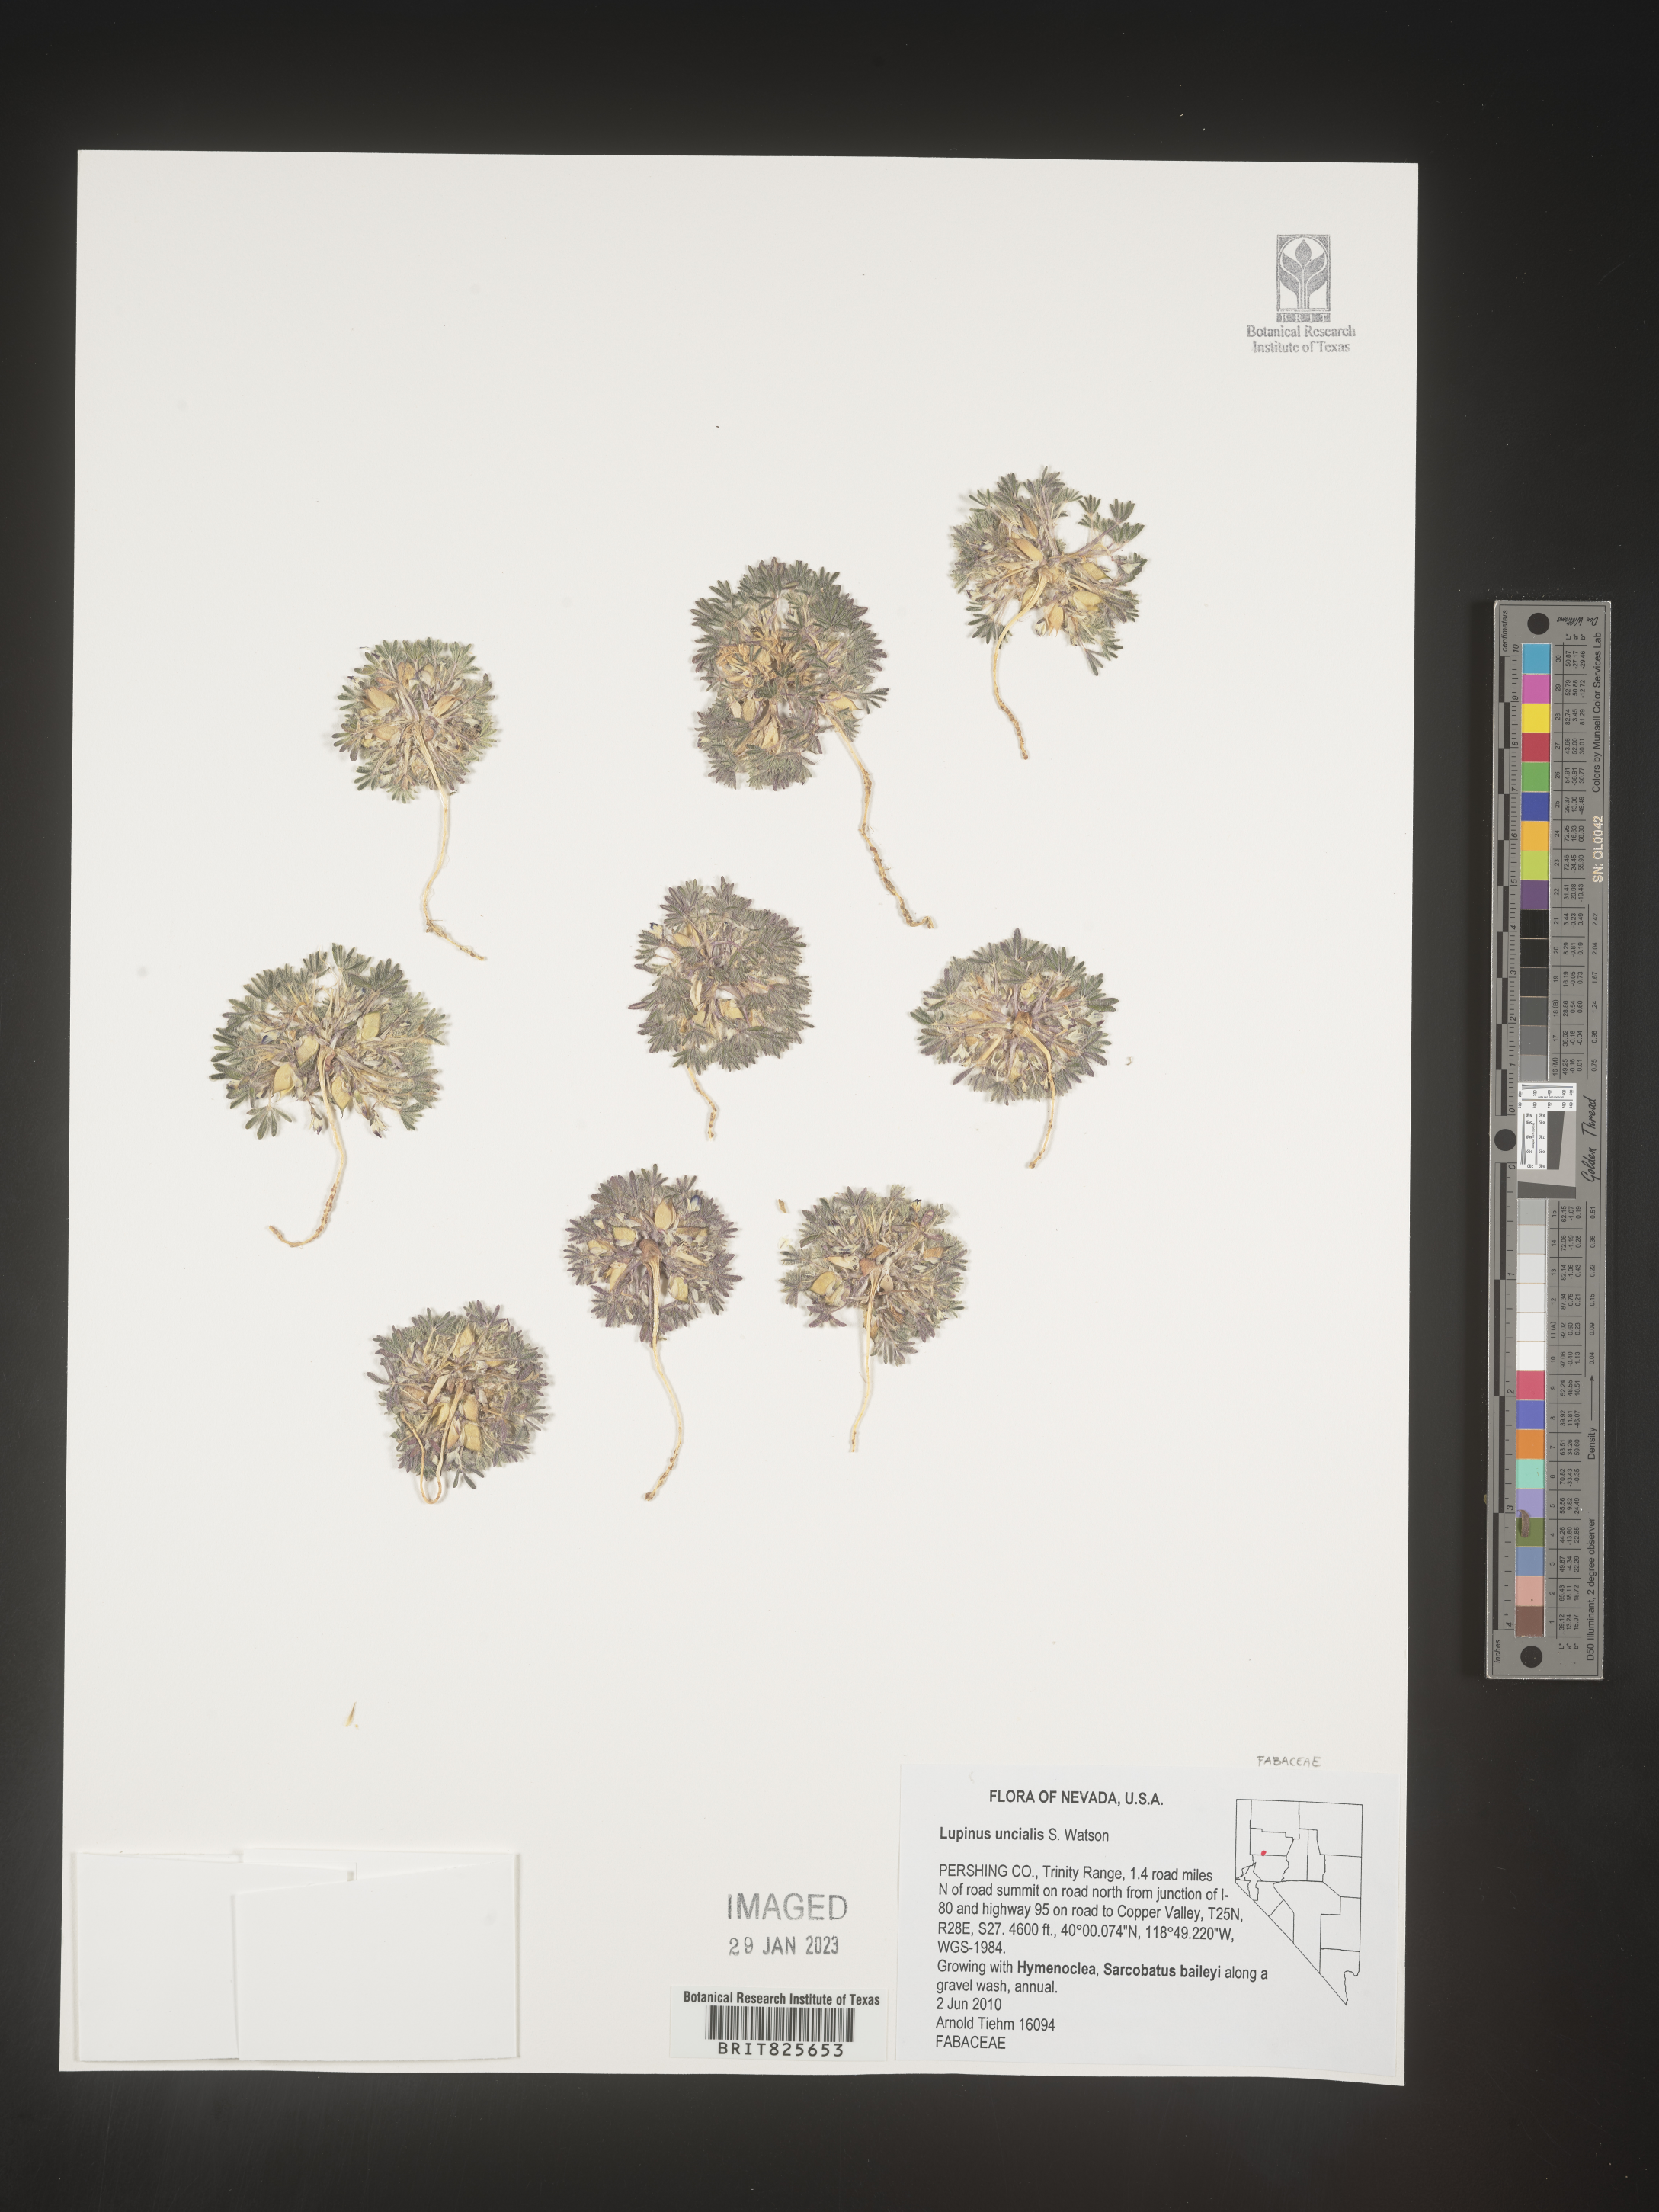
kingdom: Plantae
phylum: Tracheophyta
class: Magnoliopsida
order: Fabales
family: Fabaceae
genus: Lupinus
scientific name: Lupinus
